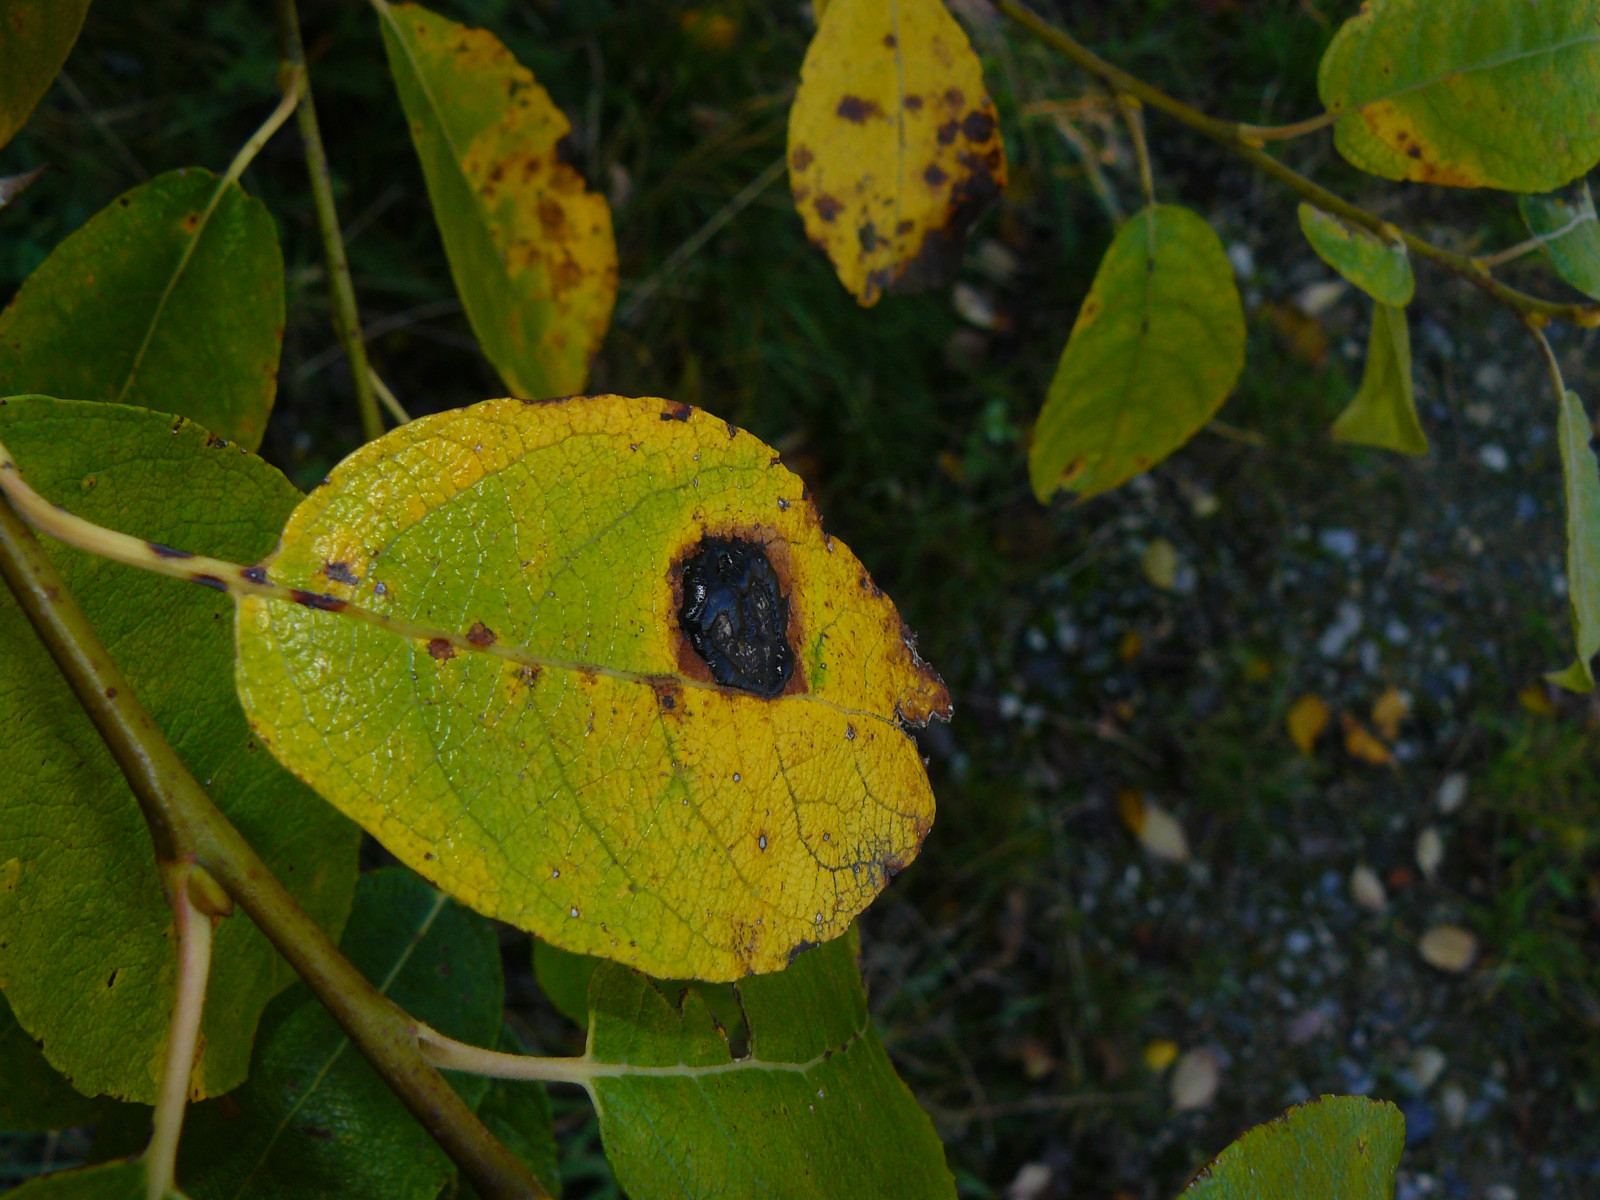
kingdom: Fungi
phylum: Ascomycota
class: Leotiomycetes
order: Rhytismatales
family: Rhytismataceae
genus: Rhytisma
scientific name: Rhytisma salicinum
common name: pile-rynkeplet
